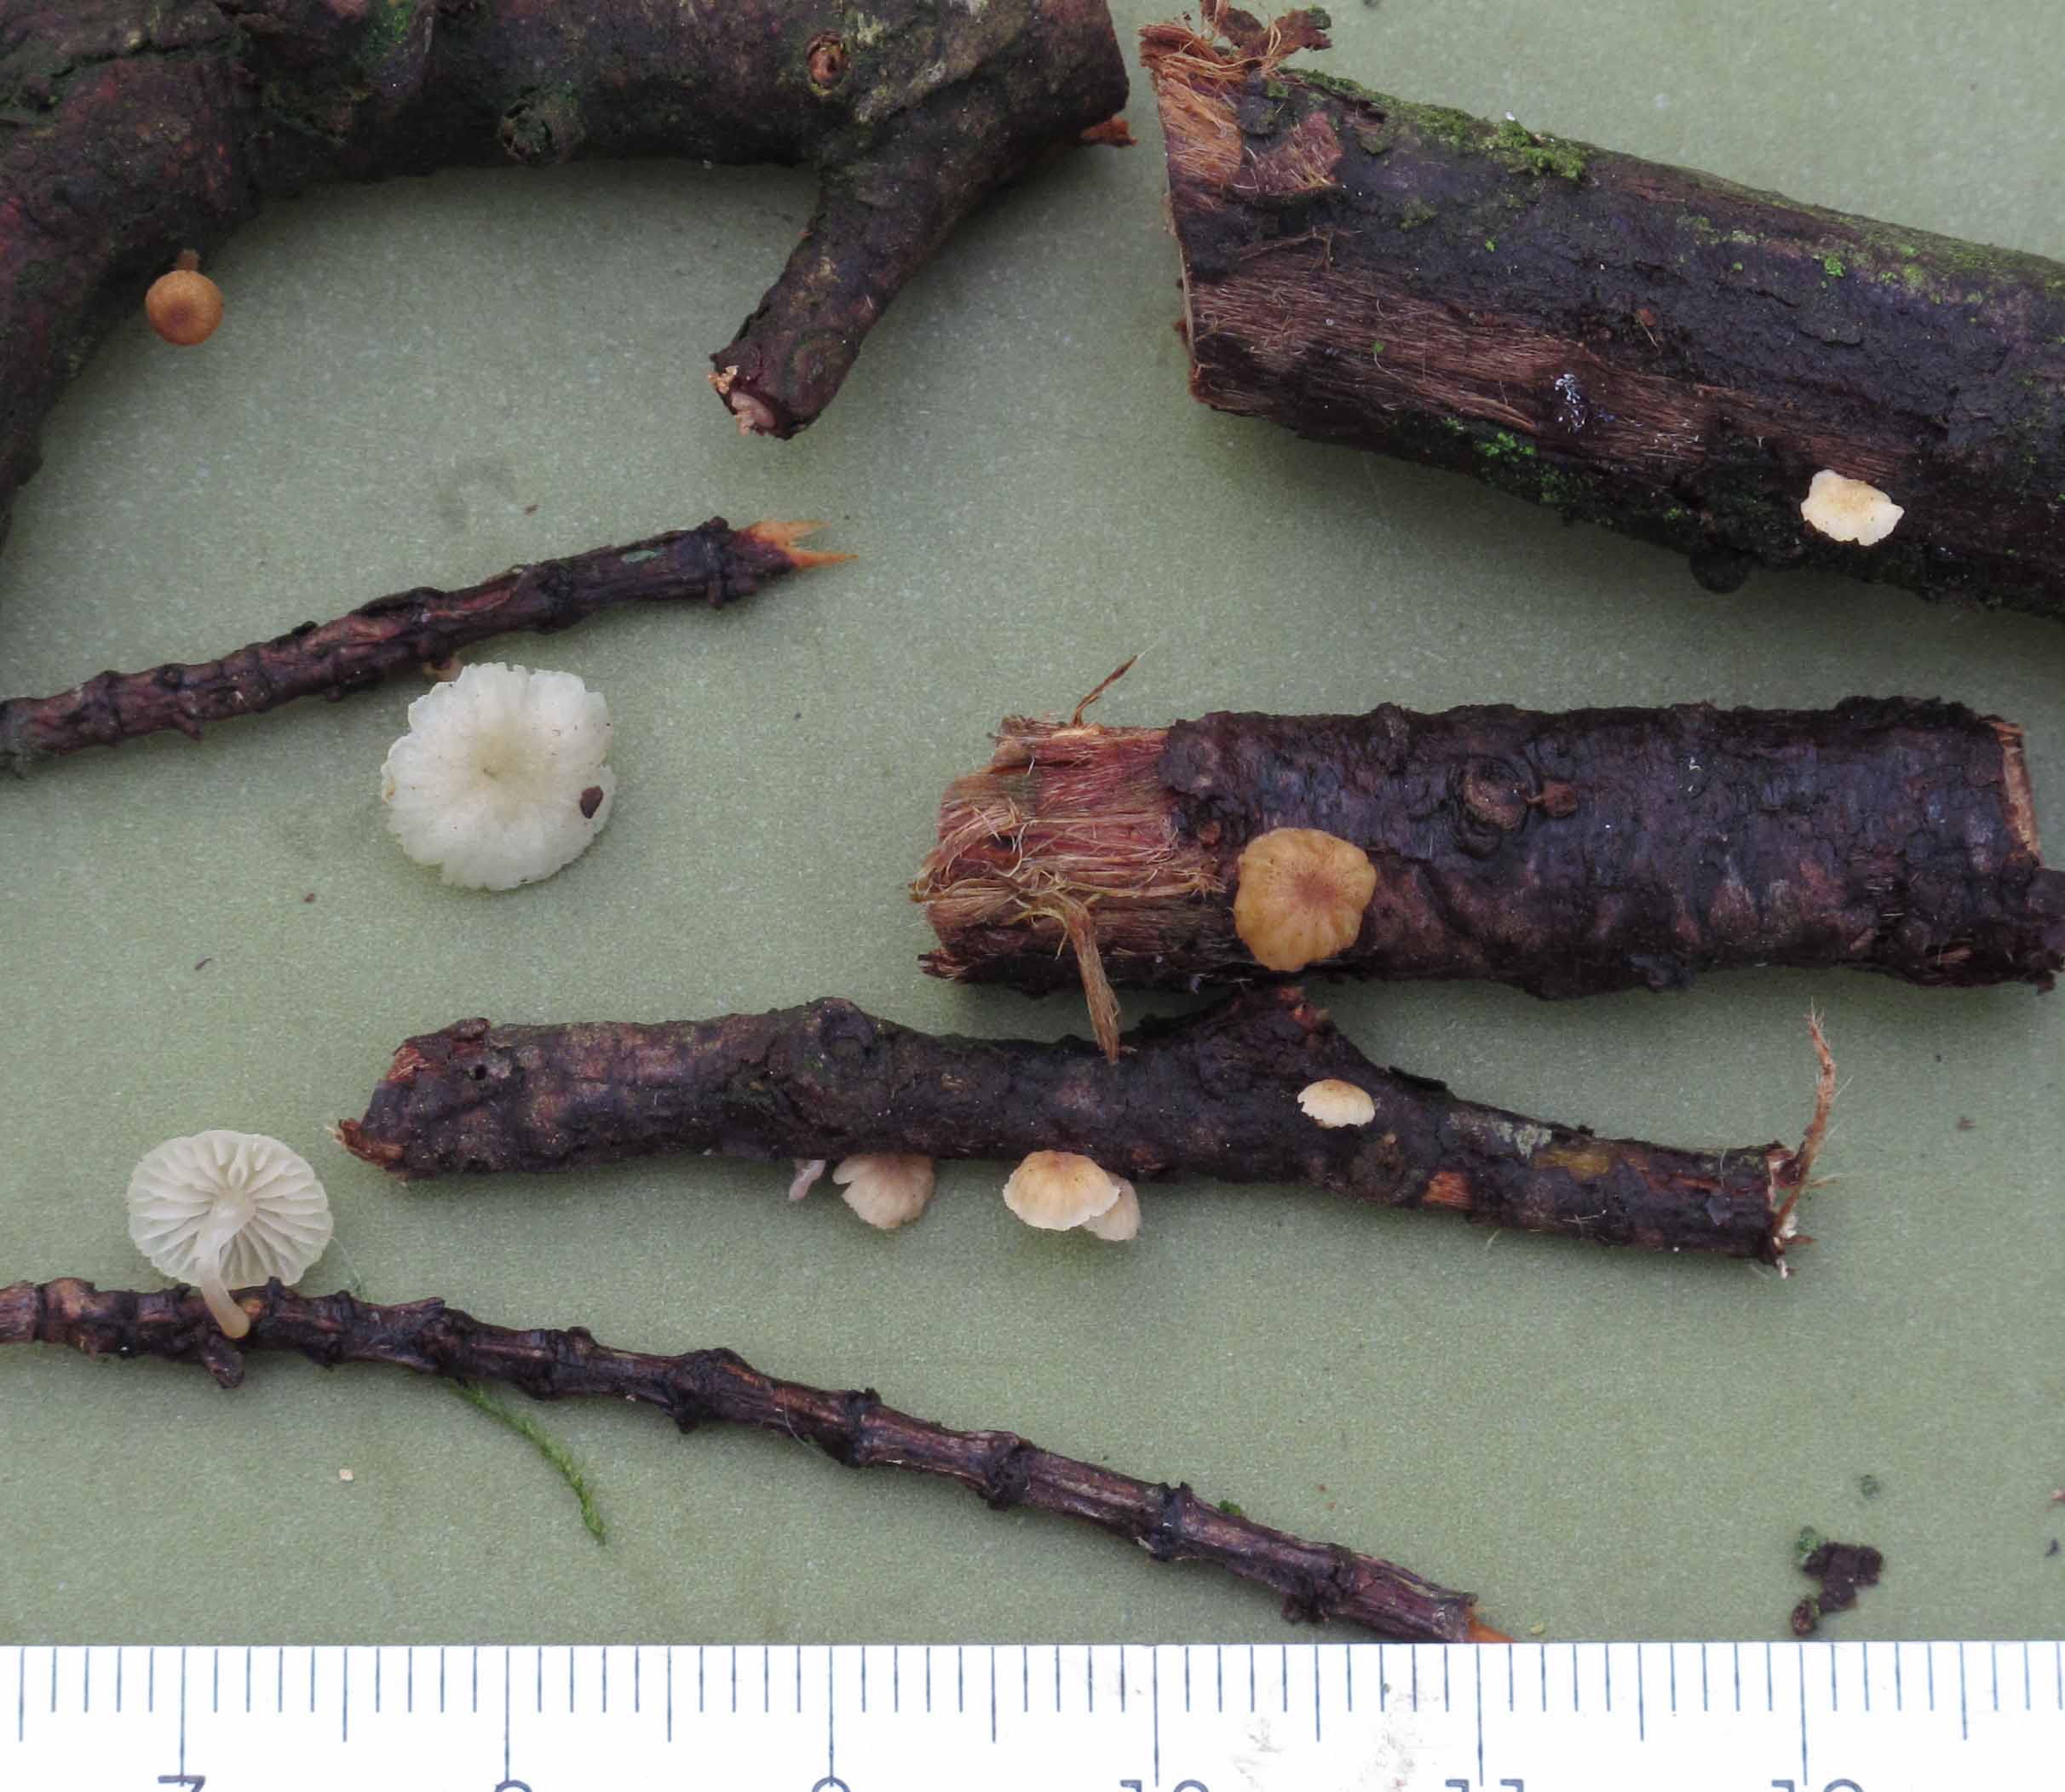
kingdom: Fungi
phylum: Basidiomycota
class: Agaricomycetes
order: Agaricales
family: Mycenaceae
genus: Mycena
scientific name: Mycena juniperina
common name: ene-Huesvamp
